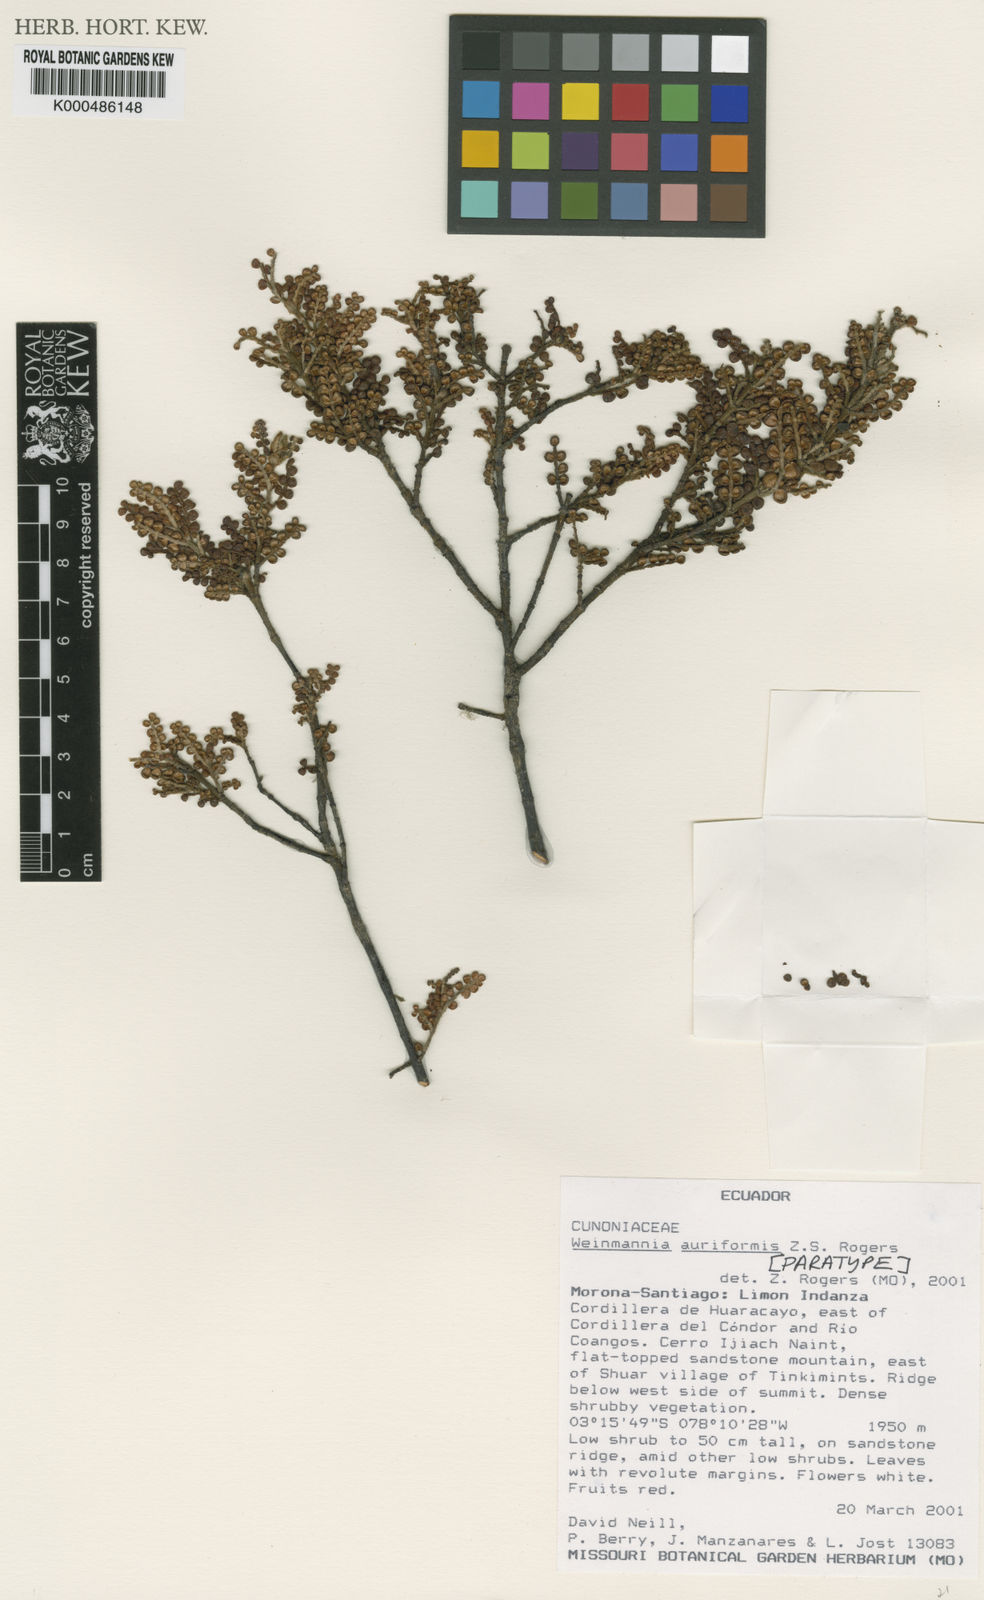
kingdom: Plantae
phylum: Tracheophyta
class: Magnoliopsida
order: Oxalidales
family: Cunoniaceae
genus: Weinmannia
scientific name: Weinmannia auriformis
